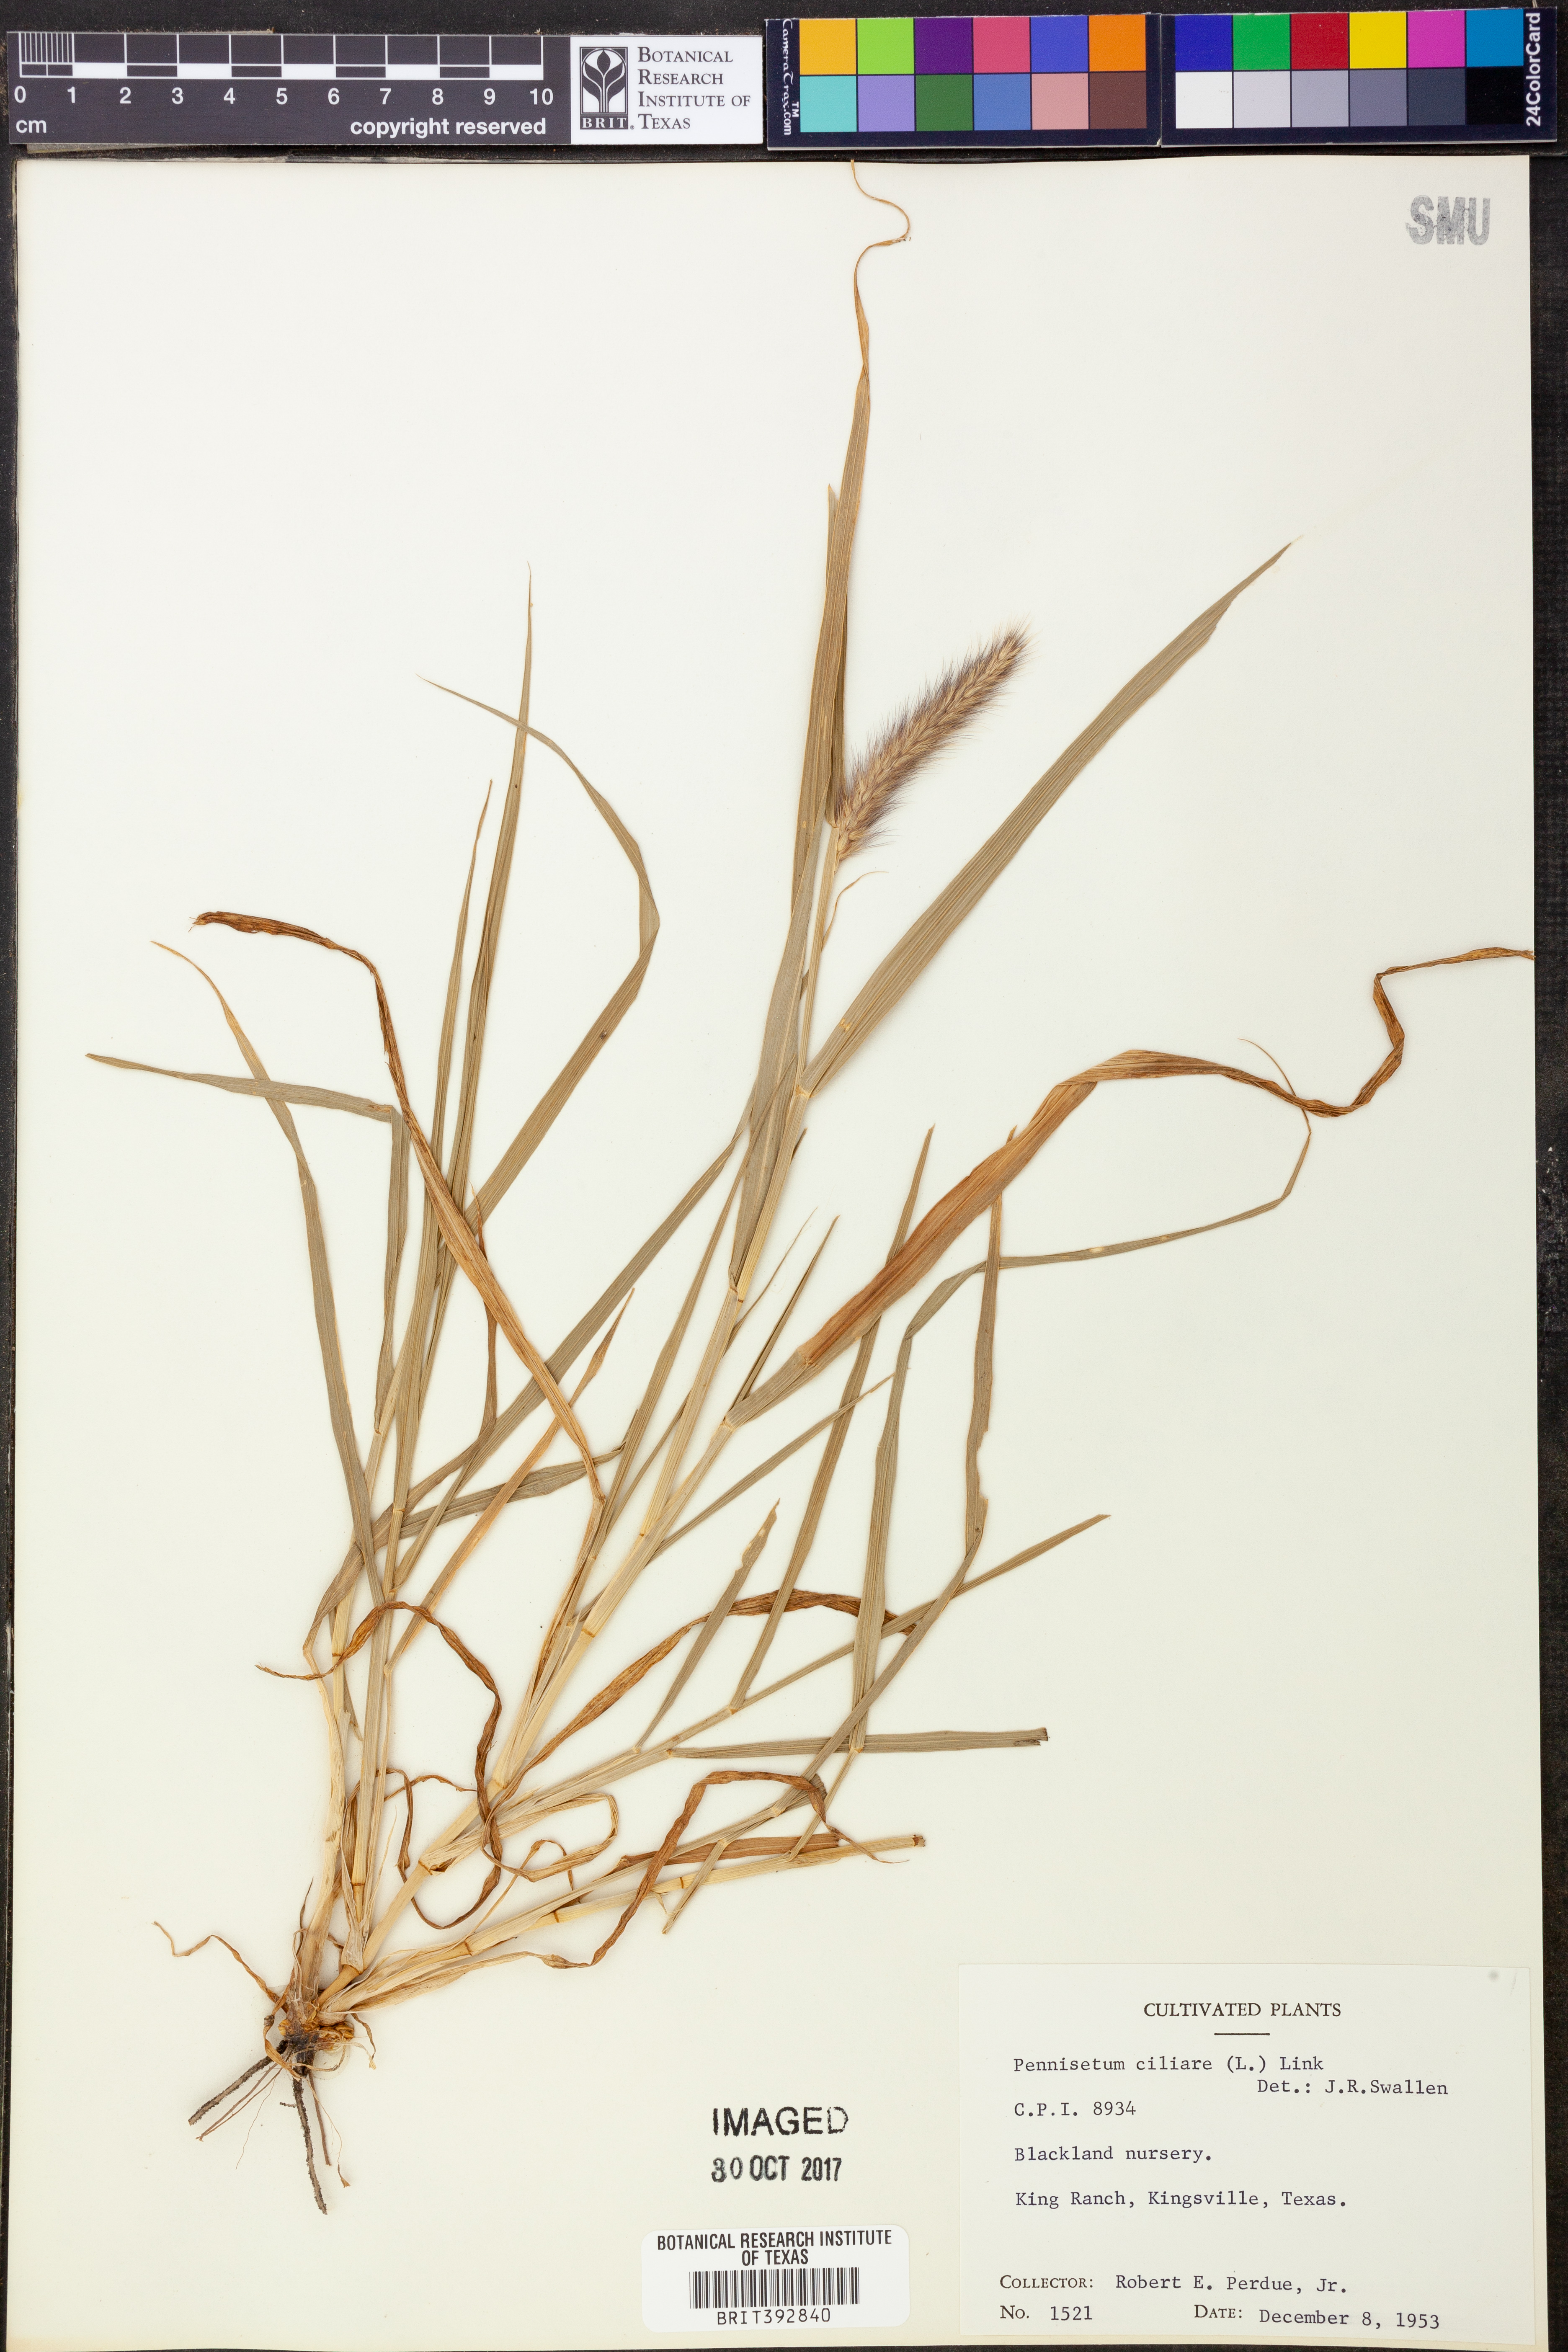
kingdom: Plantae
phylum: Tracheophyta
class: Liliopsida
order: Poales
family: Poaceae
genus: Cenchrus
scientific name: Cenchrus ciliaris
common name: Buffelgrass
